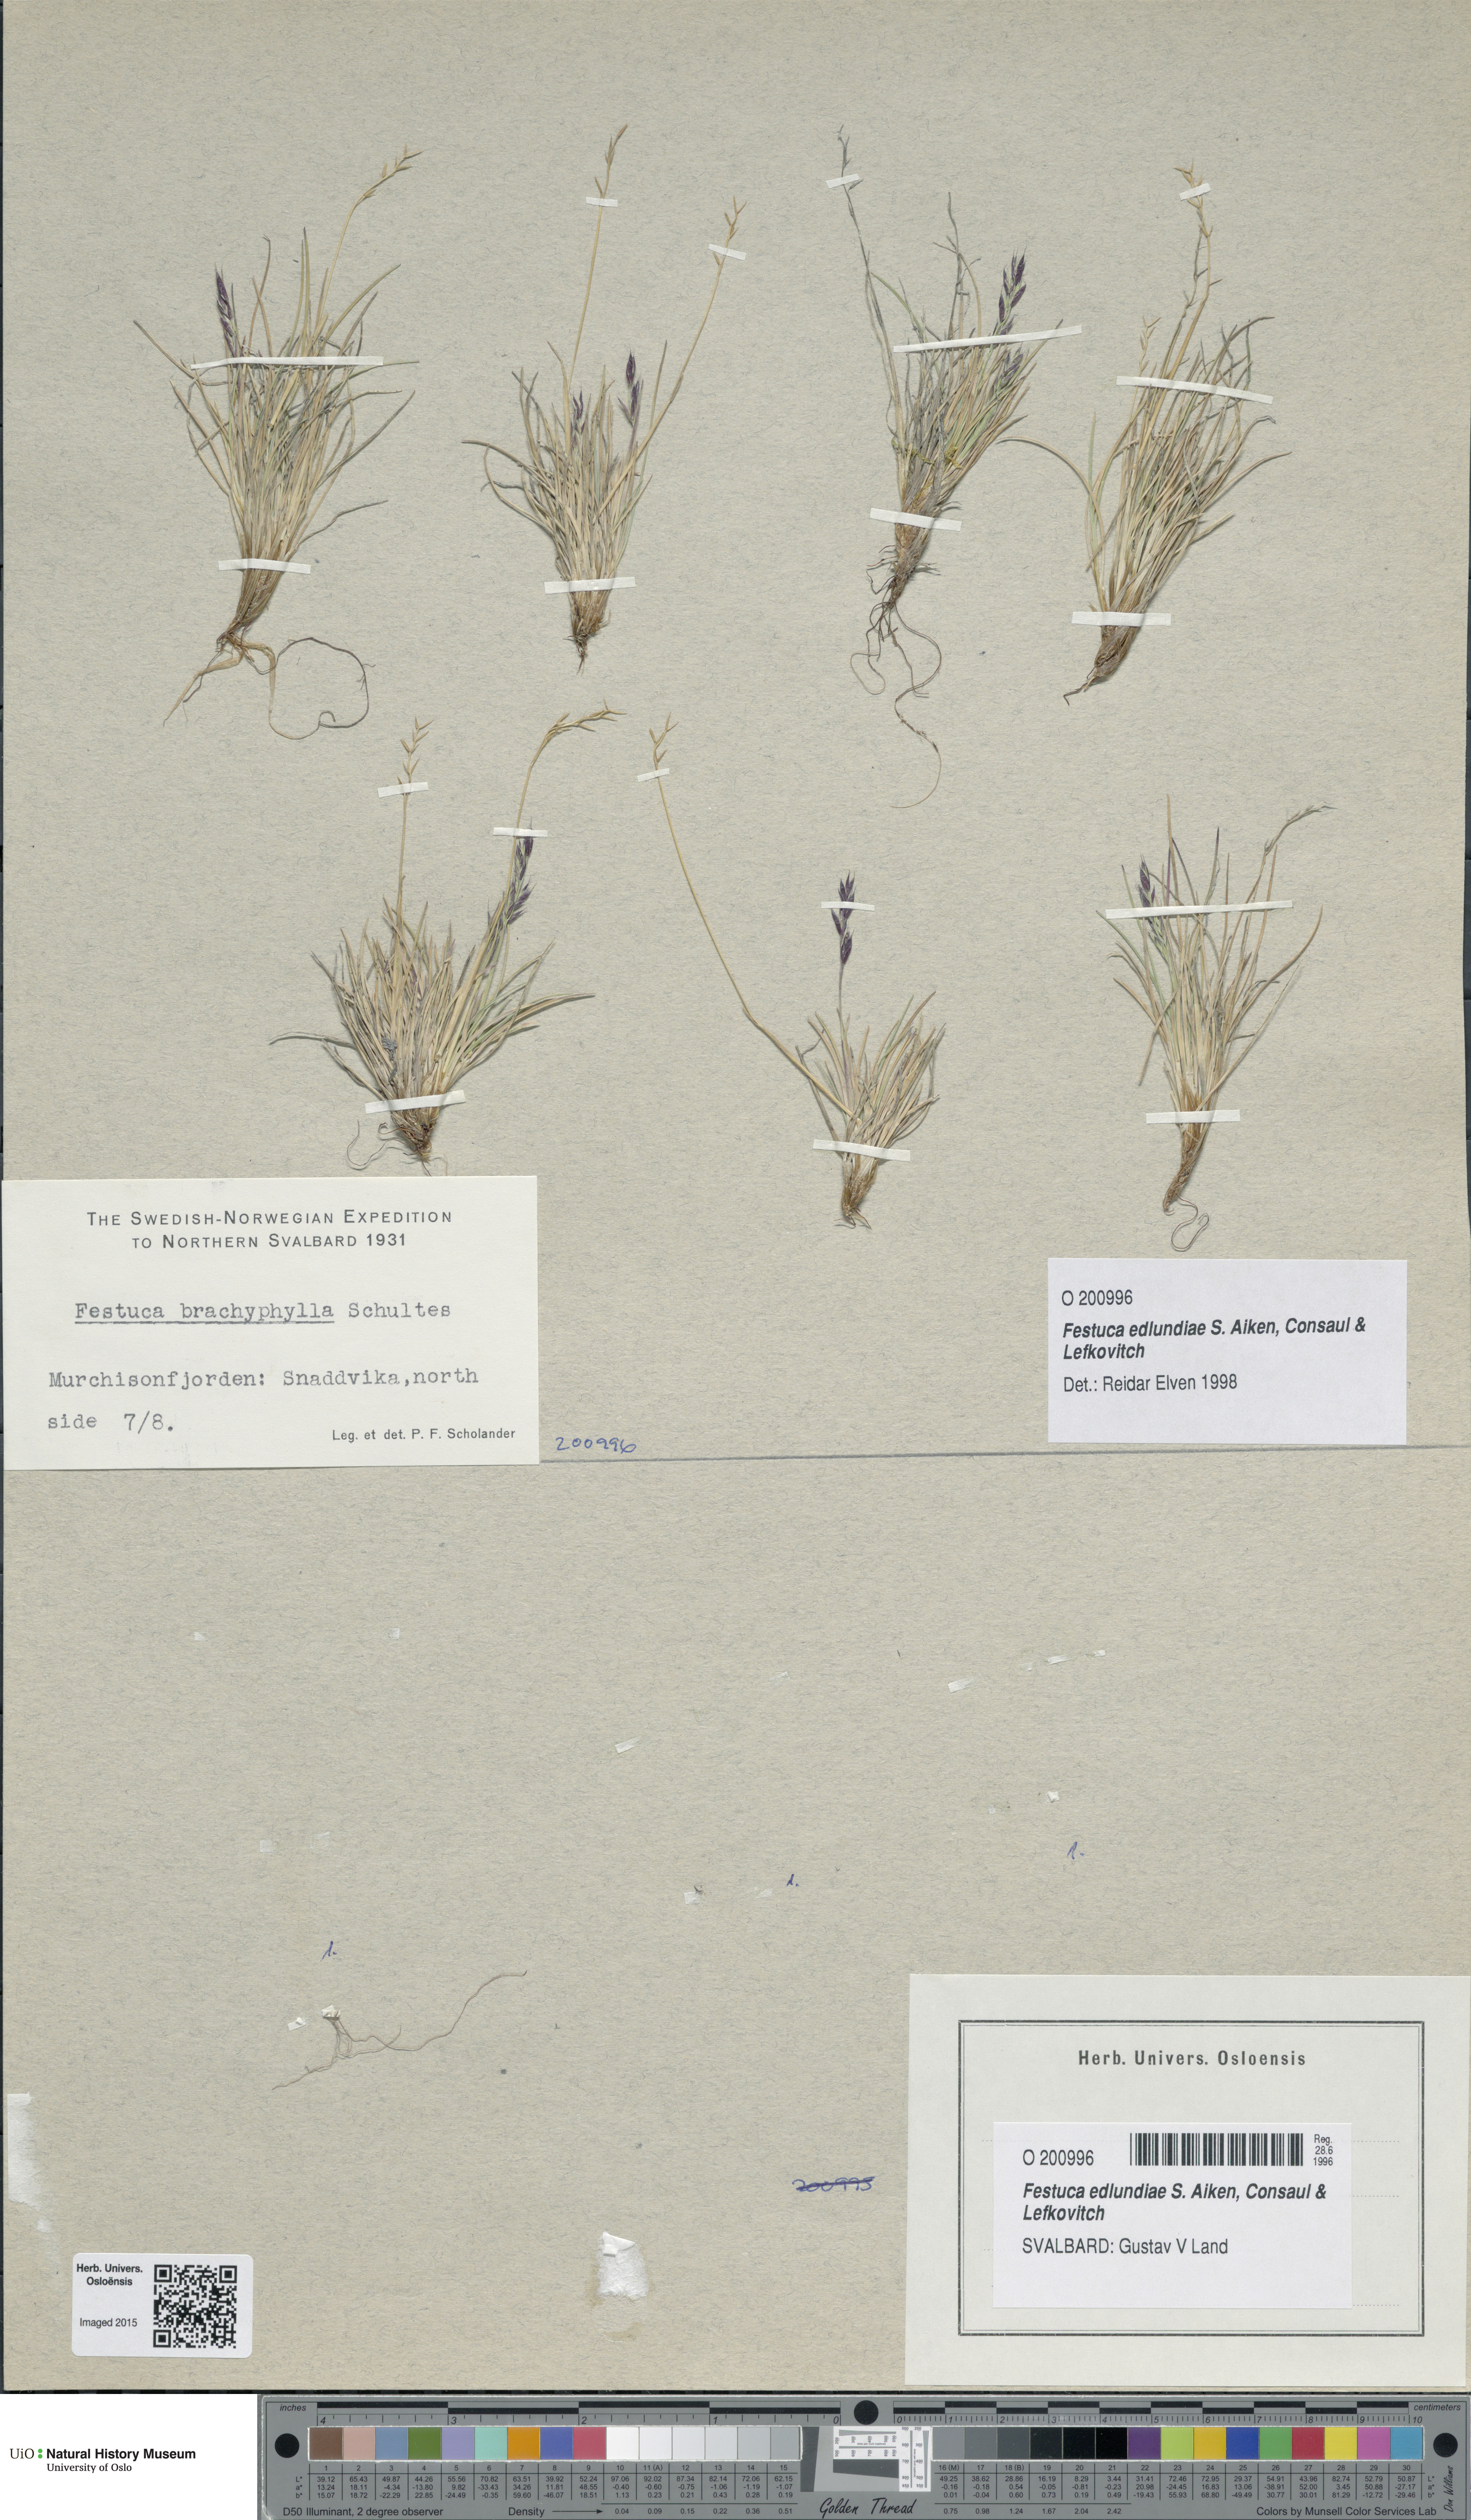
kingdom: Plantae
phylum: Tracheophyta
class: Liliopsida
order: Poales
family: Poaceae
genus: Festuca
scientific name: Festuca edlundiae
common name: Edlund's fescue
